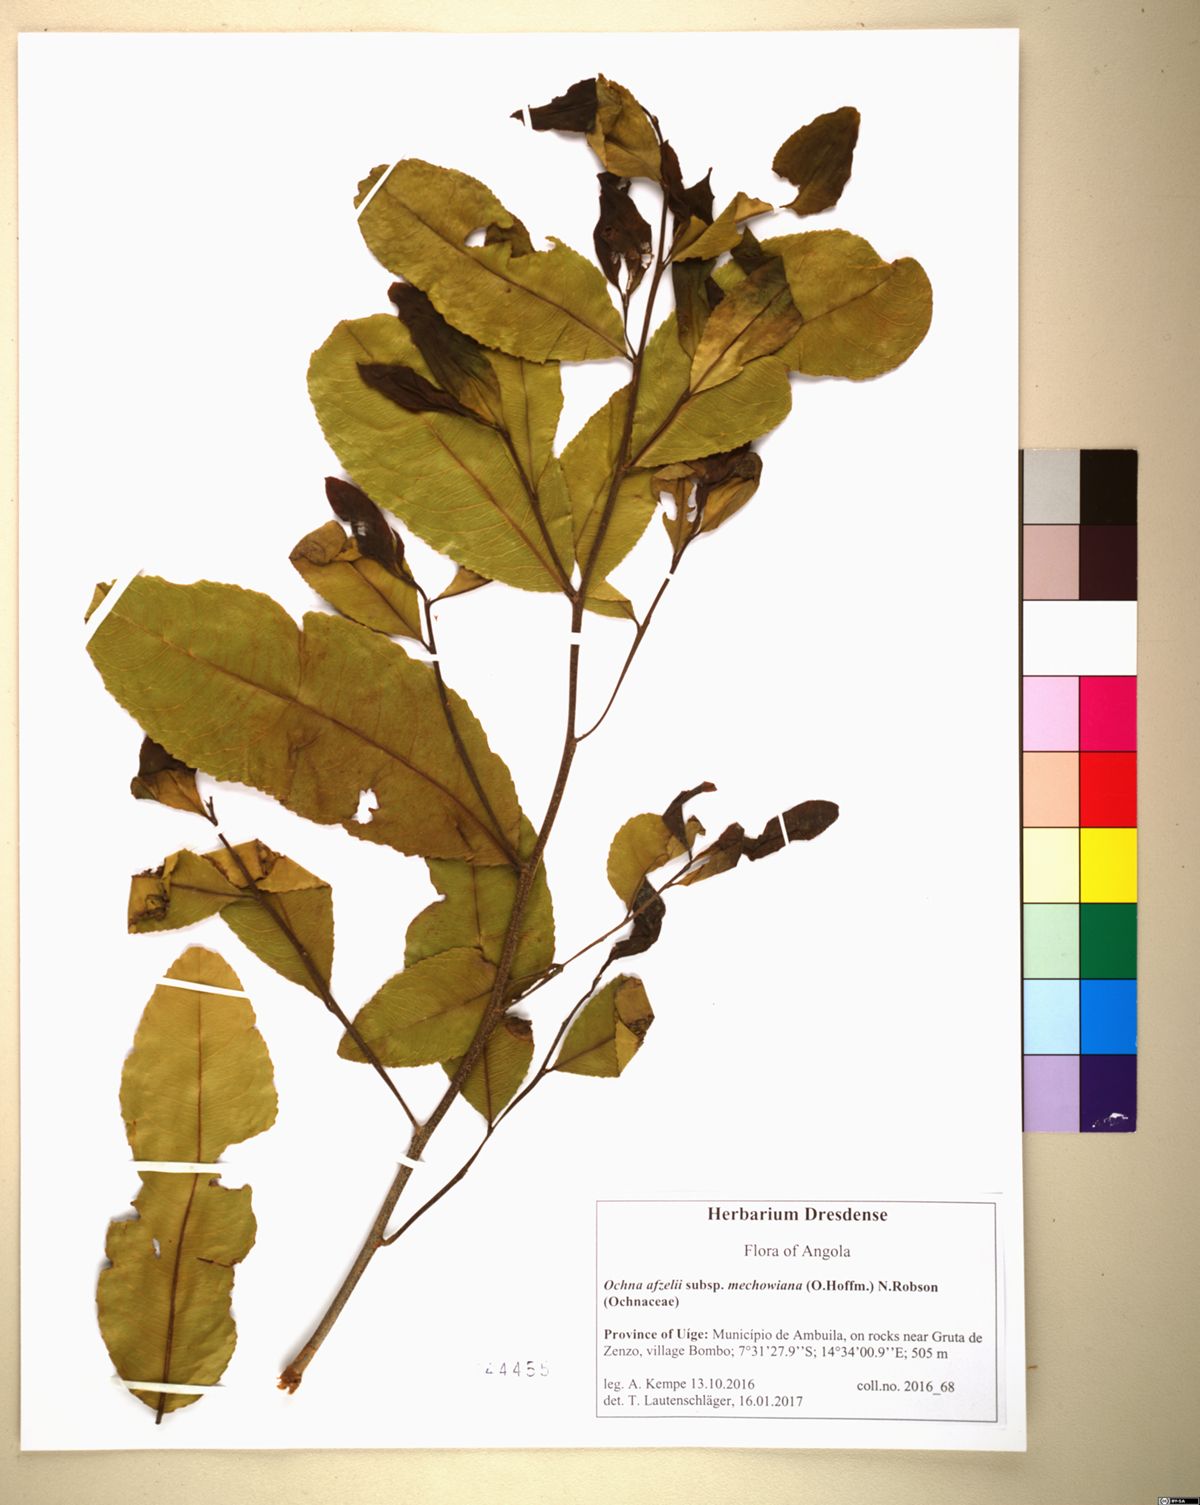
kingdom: Plantae
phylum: Tracheophyta
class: Magnoliopsida
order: Malpighiales
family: Ochnaceae
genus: Ochna
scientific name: Ochna afzelii
